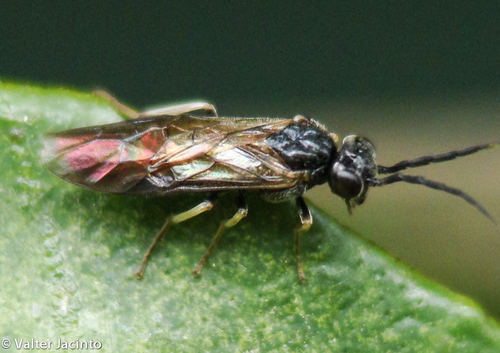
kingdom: Animalia
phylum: Arthropoda
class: Insecta
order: Hymenoptera
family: Tenthredinidae
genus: Cladius
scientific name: Cladius
